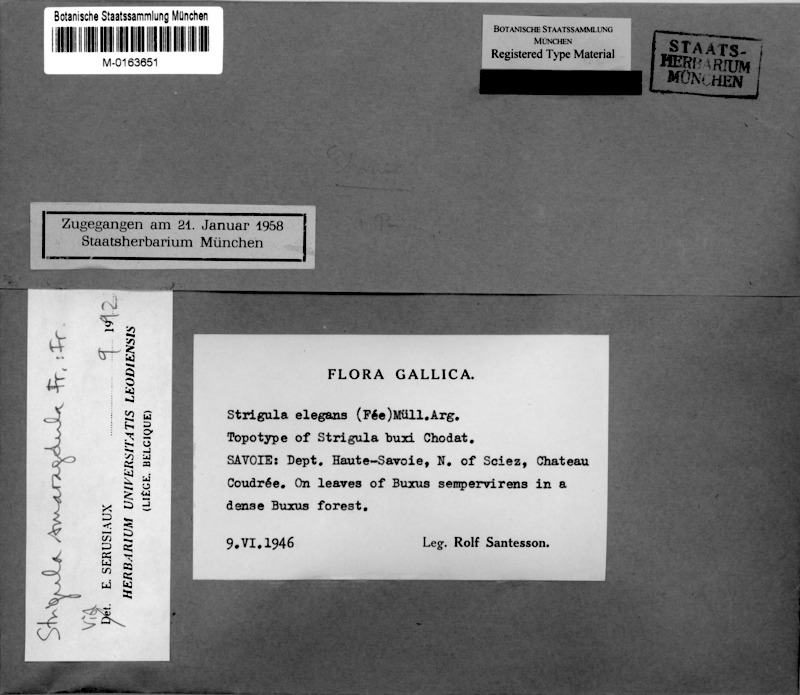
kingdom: Fungi
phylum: Ascomycota
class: Dothideomycetes
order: Strigulales
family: Strigulaceae
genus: Strigula
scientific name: Strigula smaragdula
